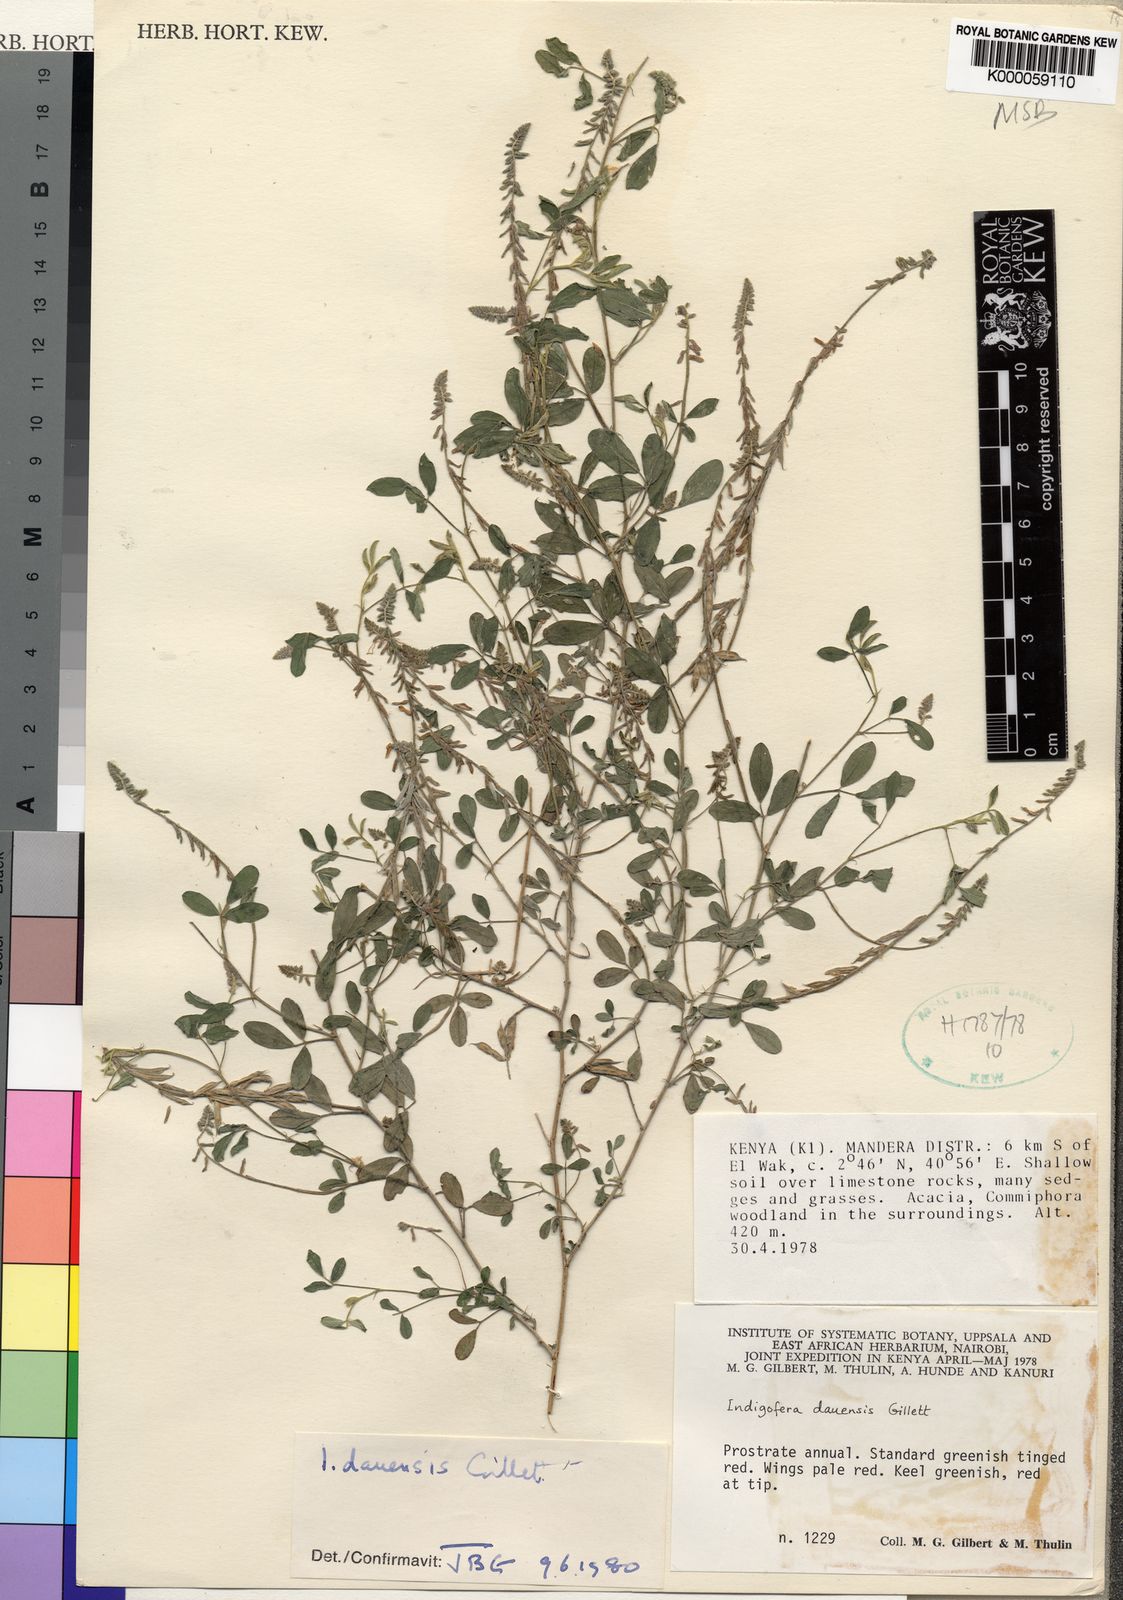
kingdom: Plantae
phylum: Tracheophyta
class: Magnoliopsida
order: Fabales
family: Fabaceae
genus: Indigofera
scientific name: Indigofera dauensis
